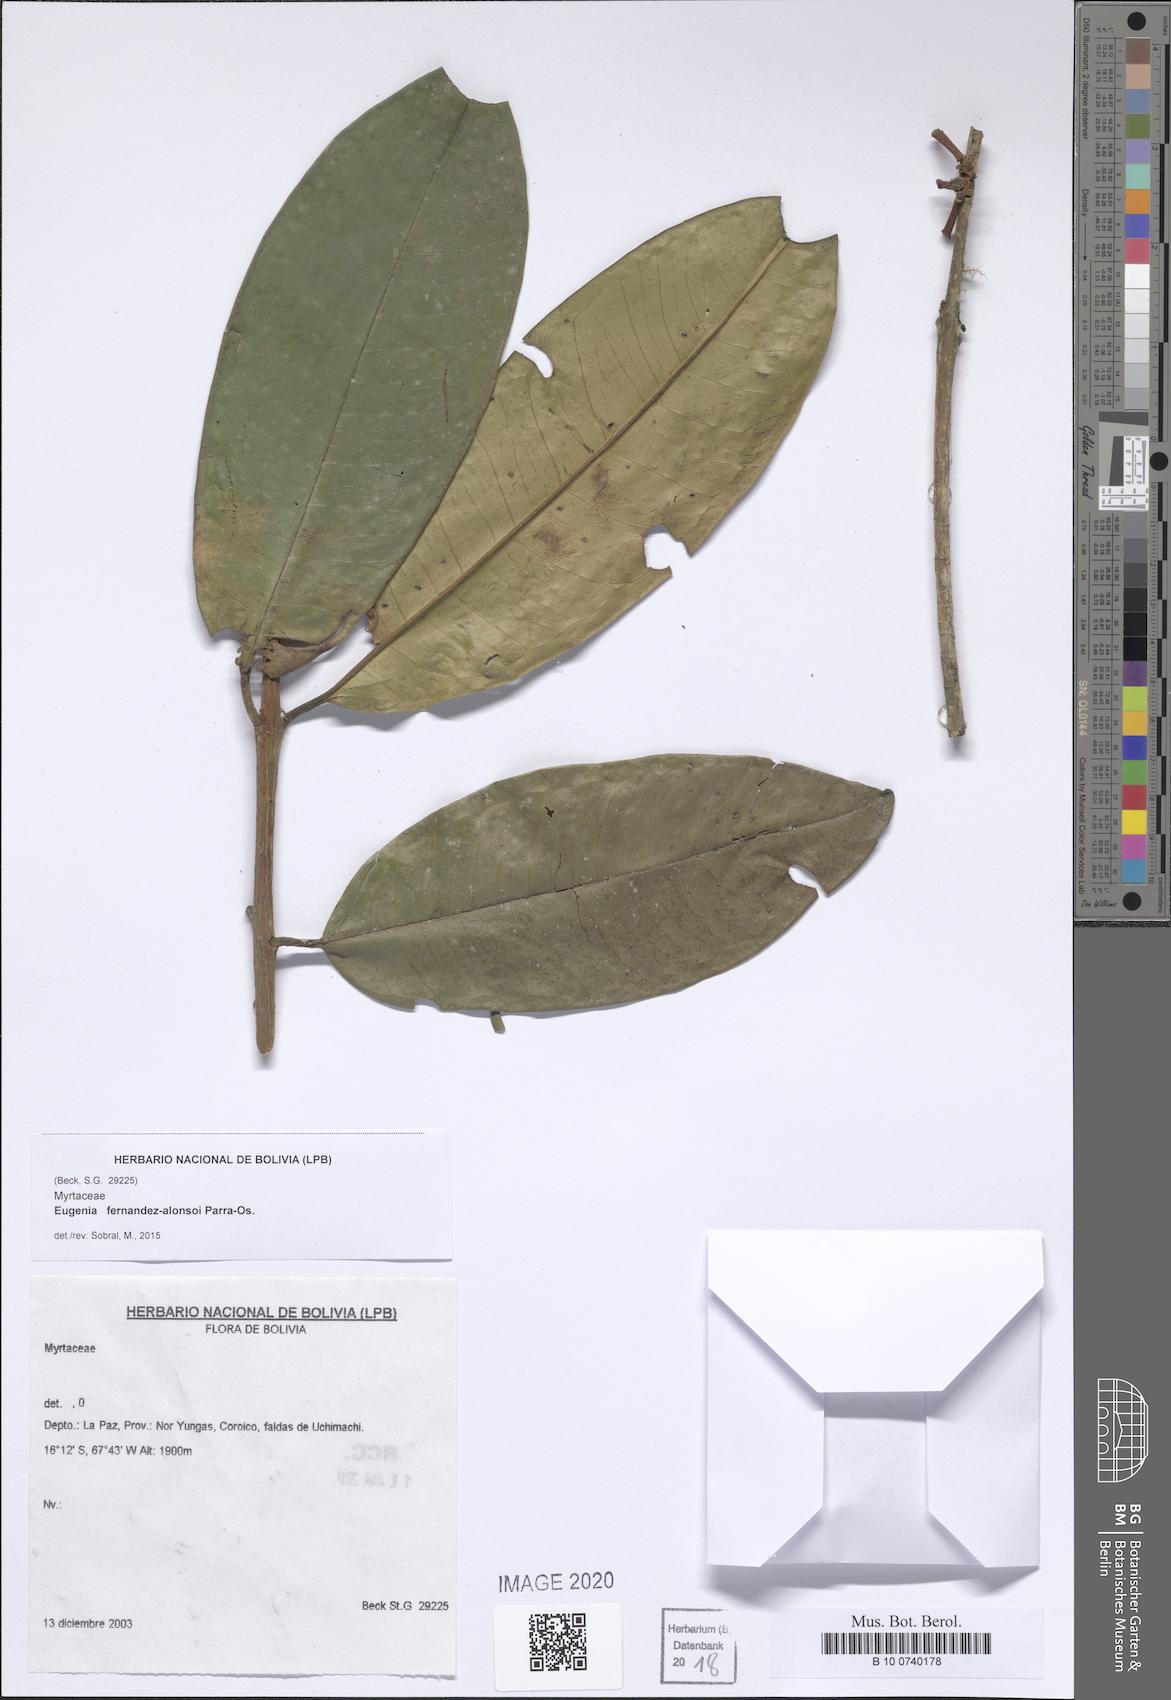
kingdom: Plantae
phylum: Tracheophyta
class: Magnoliopsida
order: Myrtales
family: Myrtaceae
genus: Eugenia
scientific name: Eugenia fernandez-alonsoi
